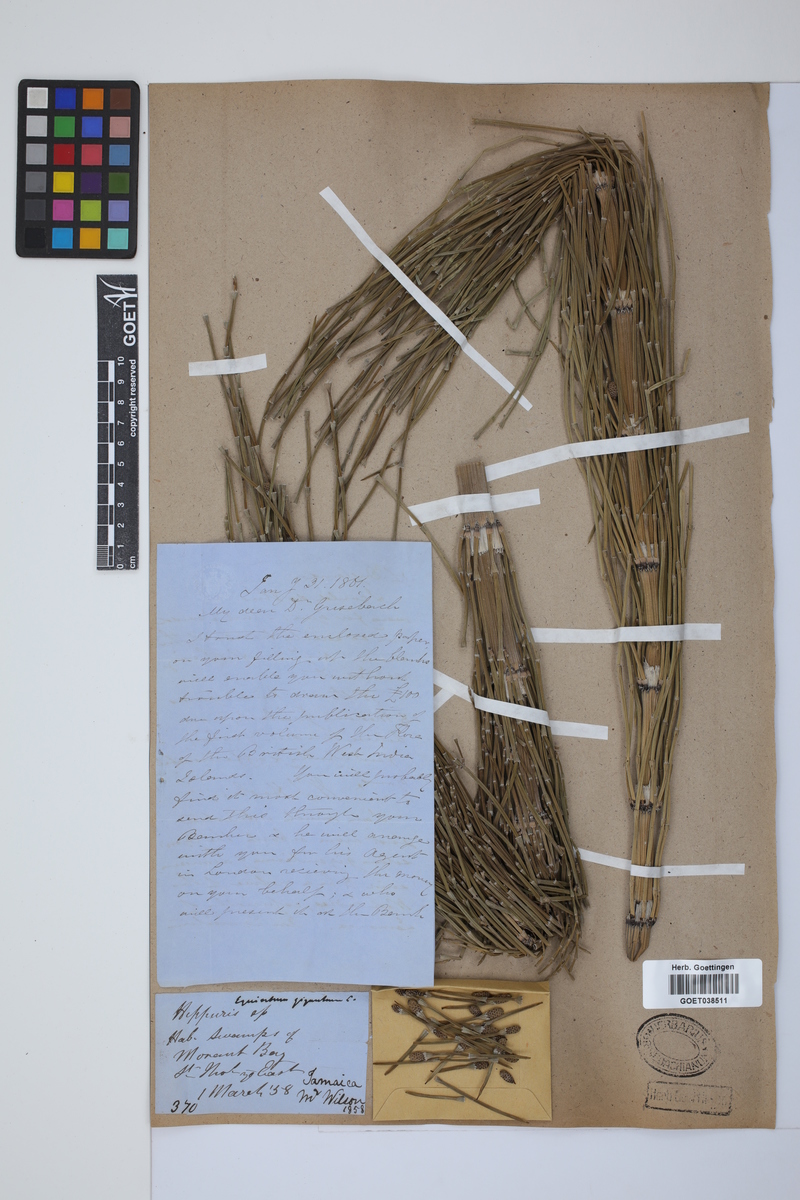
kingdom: Plantae
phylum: Tracheophyta
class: Polypodiopsida
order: Equisetales
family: Equisetaceae
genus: Equisetum
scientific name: Equisetum giganteum
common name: Giant horsetail
